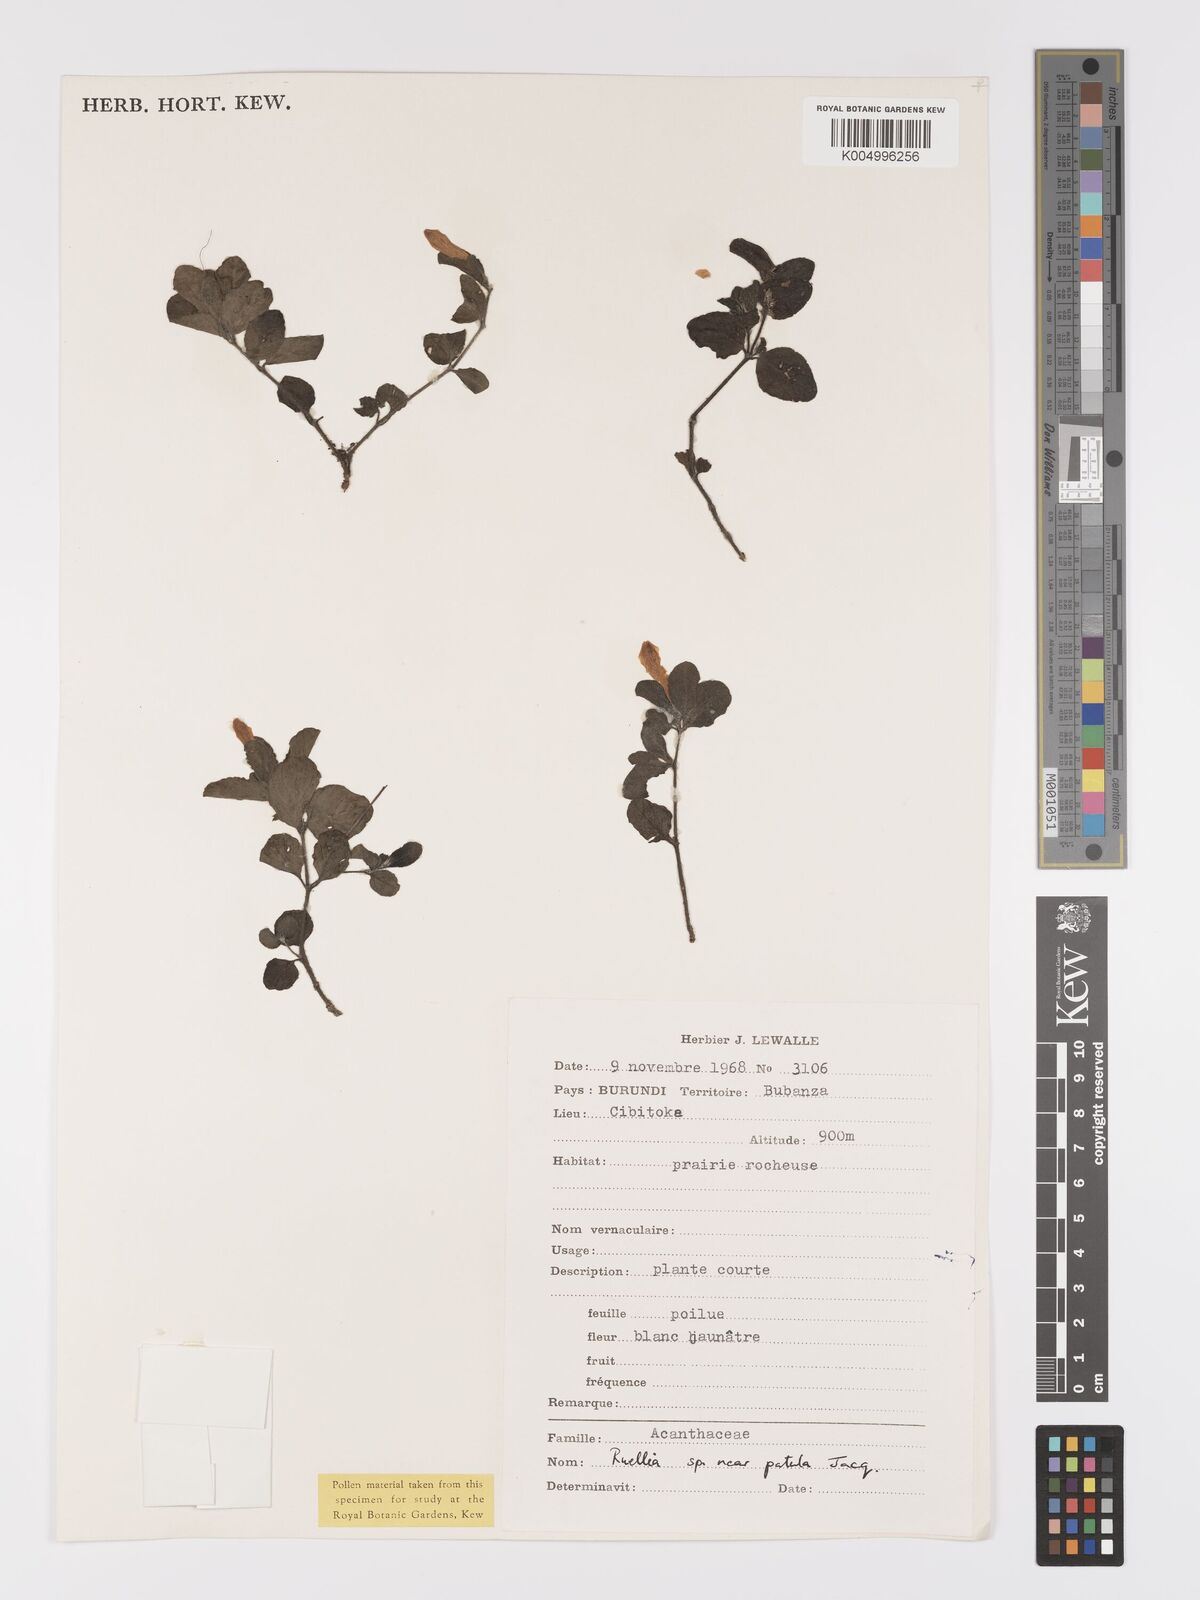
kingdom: Plantae
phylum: Tracheophyta
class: Magnoliopsida
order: Lamiales
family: Acanthaceae
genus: Ruellia
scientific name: Ruellia patula
